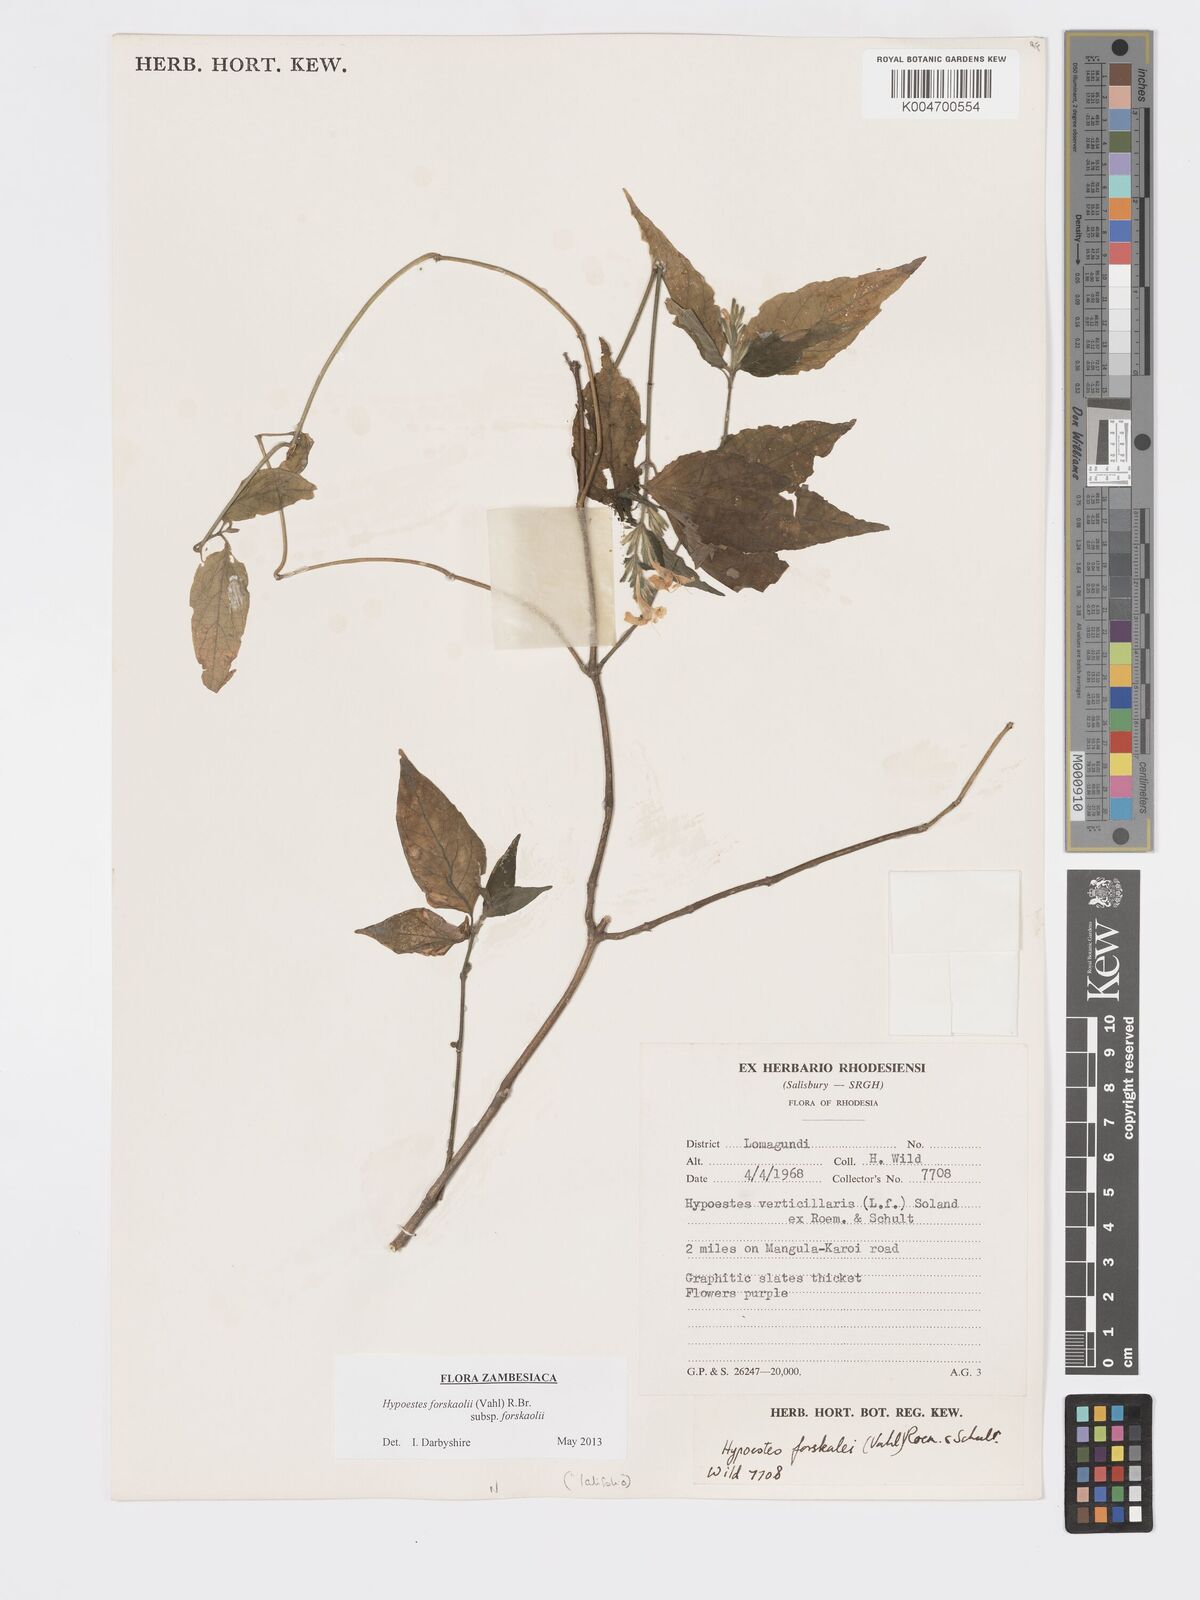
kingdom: Plantae
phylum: Tracheophyta
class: Magnoliopsida
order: Lamiales
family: Acanthaceae
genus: Hypoestes
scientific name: Hypoestes forskaolii
